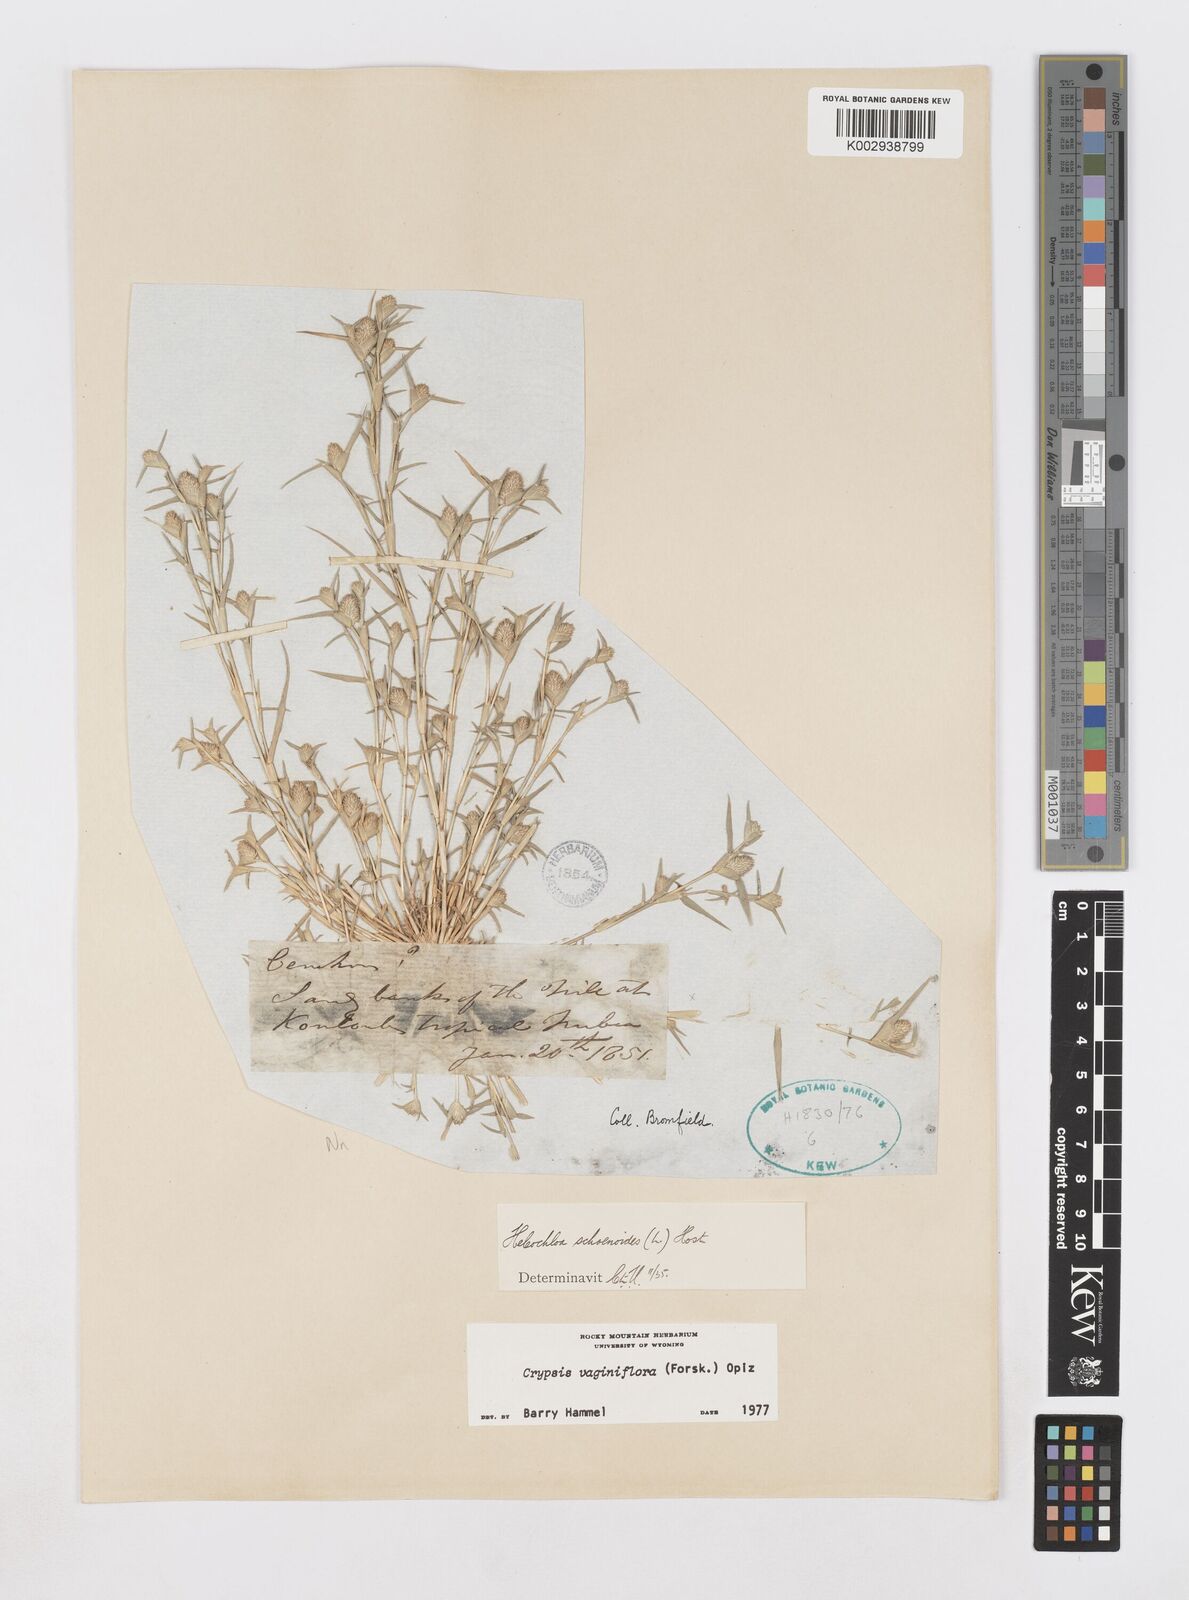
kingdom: Plantae
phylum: Tracheophyta
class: Liliopsida
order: Poales
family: Poaceae
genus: Sporobolus
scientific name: Sporobolus niliacus
